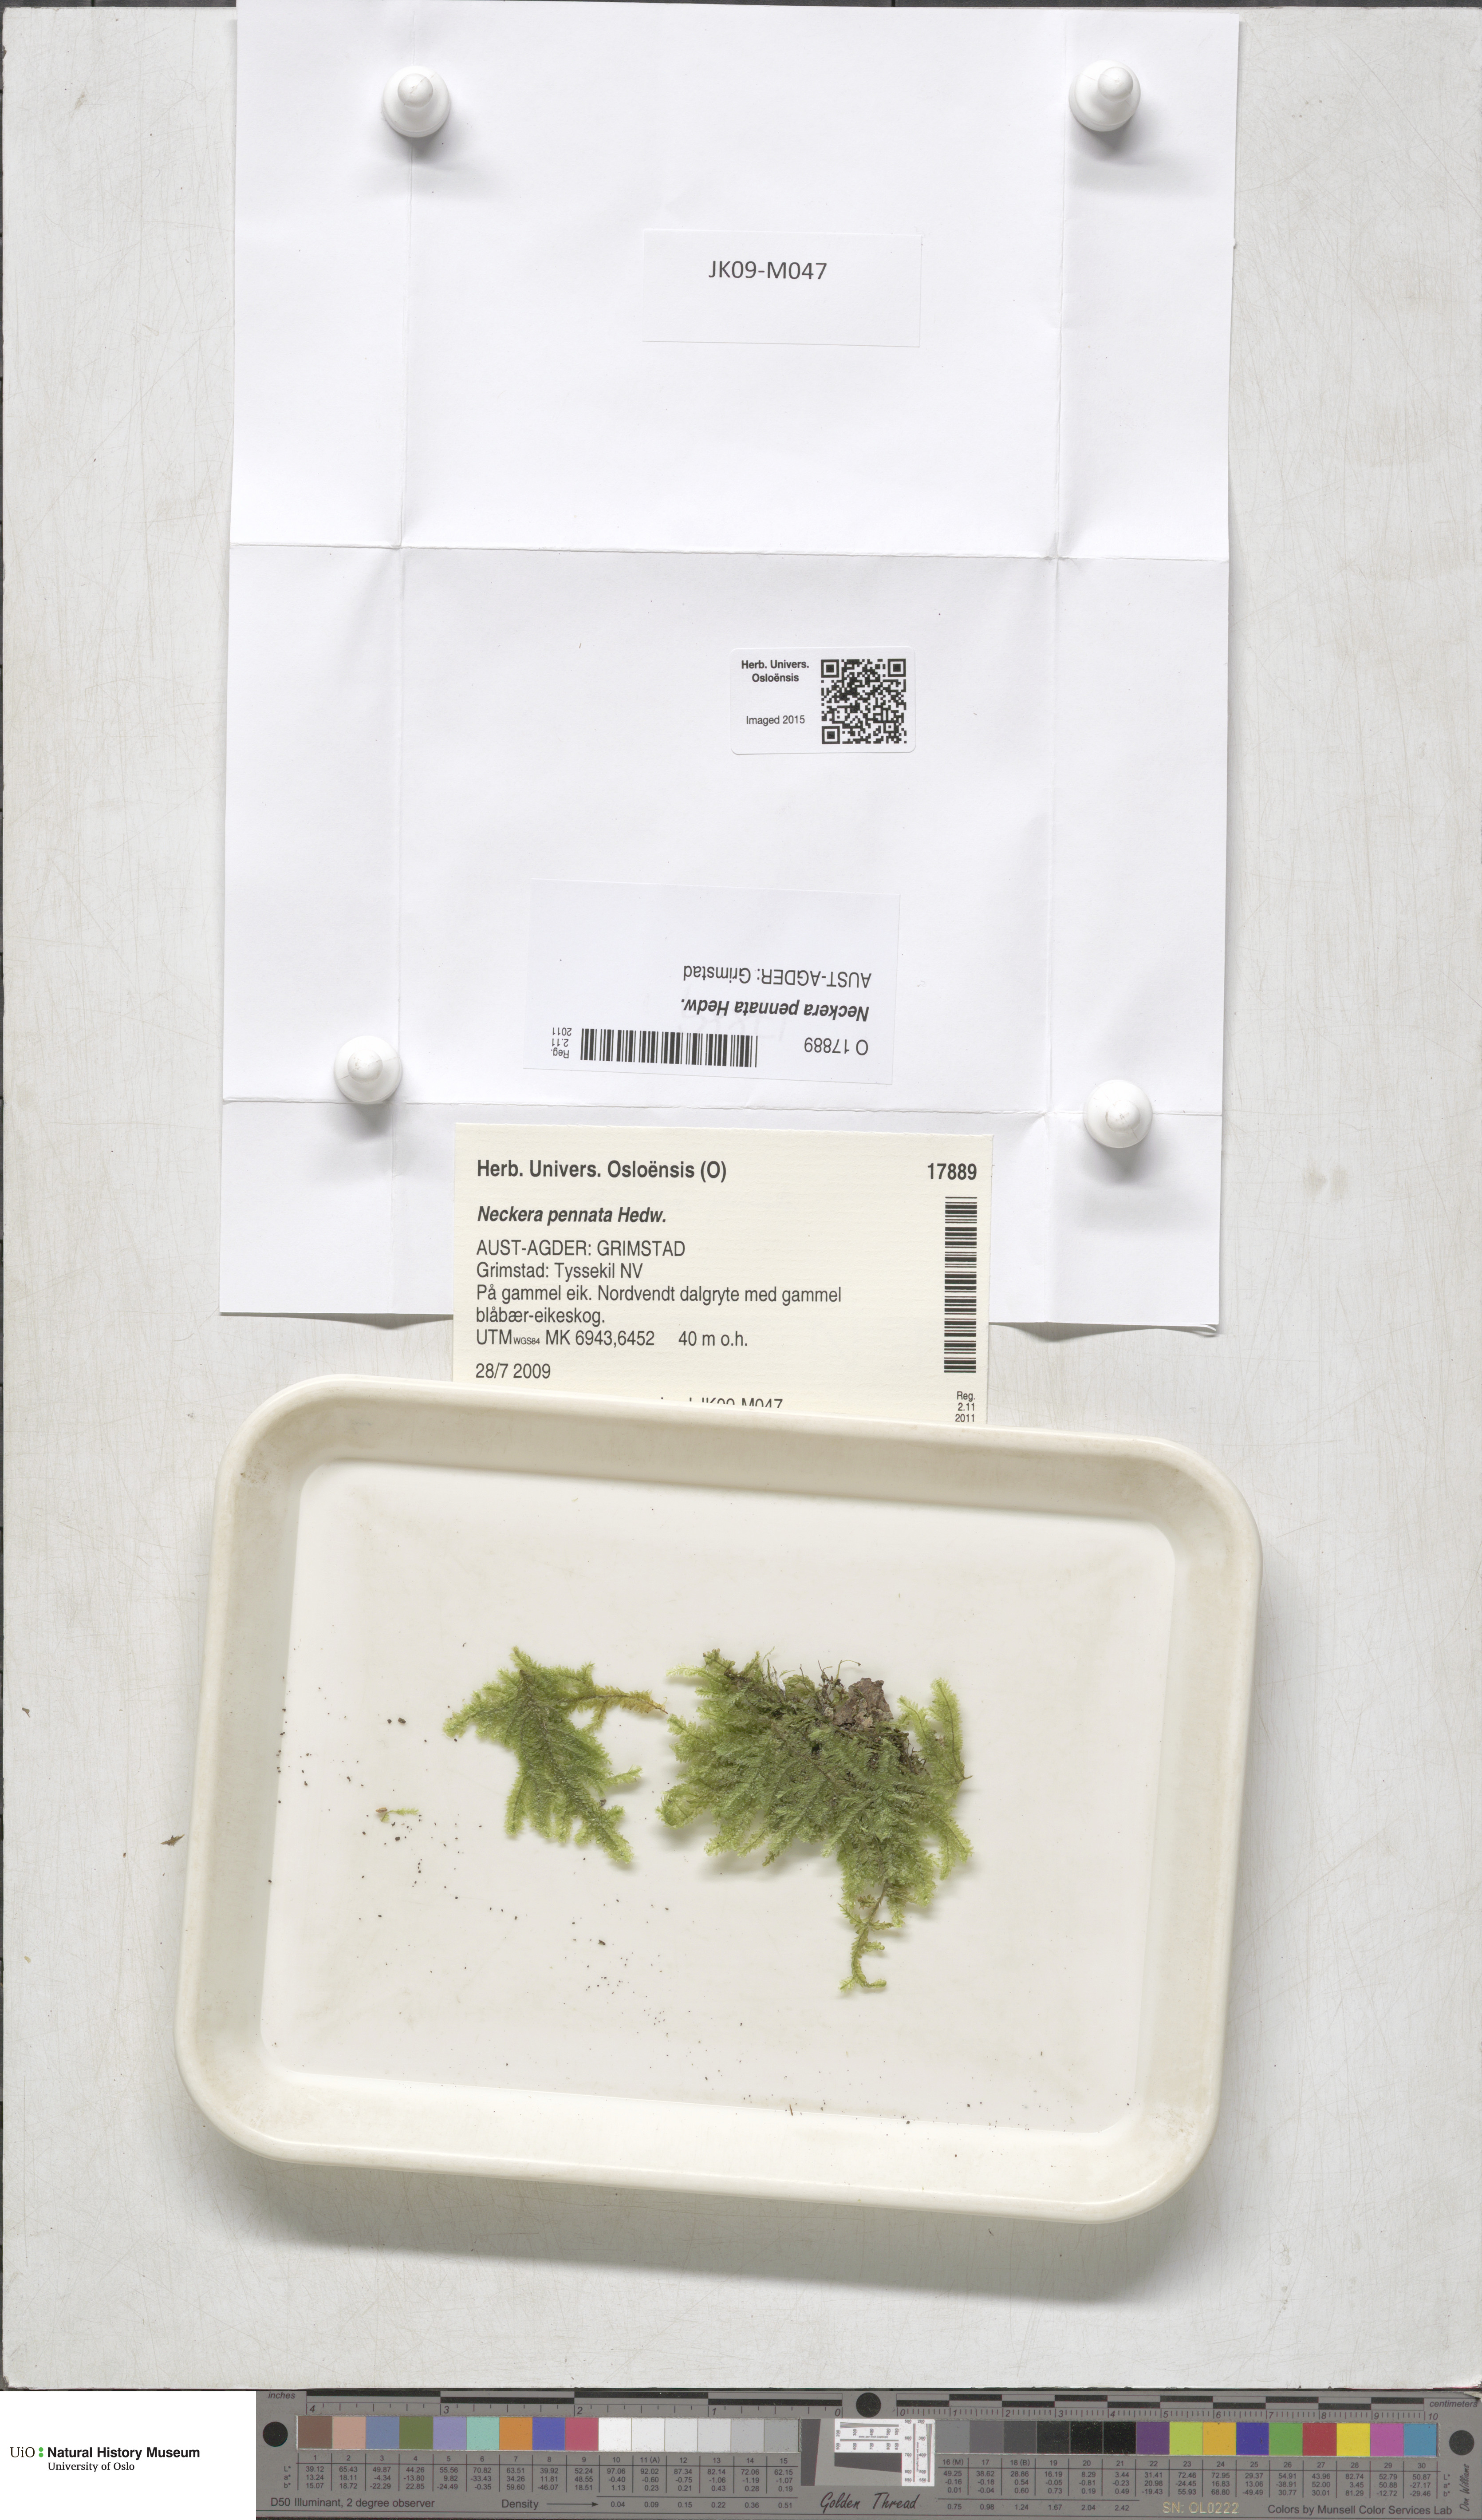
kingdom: Plantae
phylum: Bryophyta
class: Bryopsida
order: Hypnales
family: Neckeraceae
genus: Neckera
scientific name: Neckera pennata
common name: Feathery neckera
